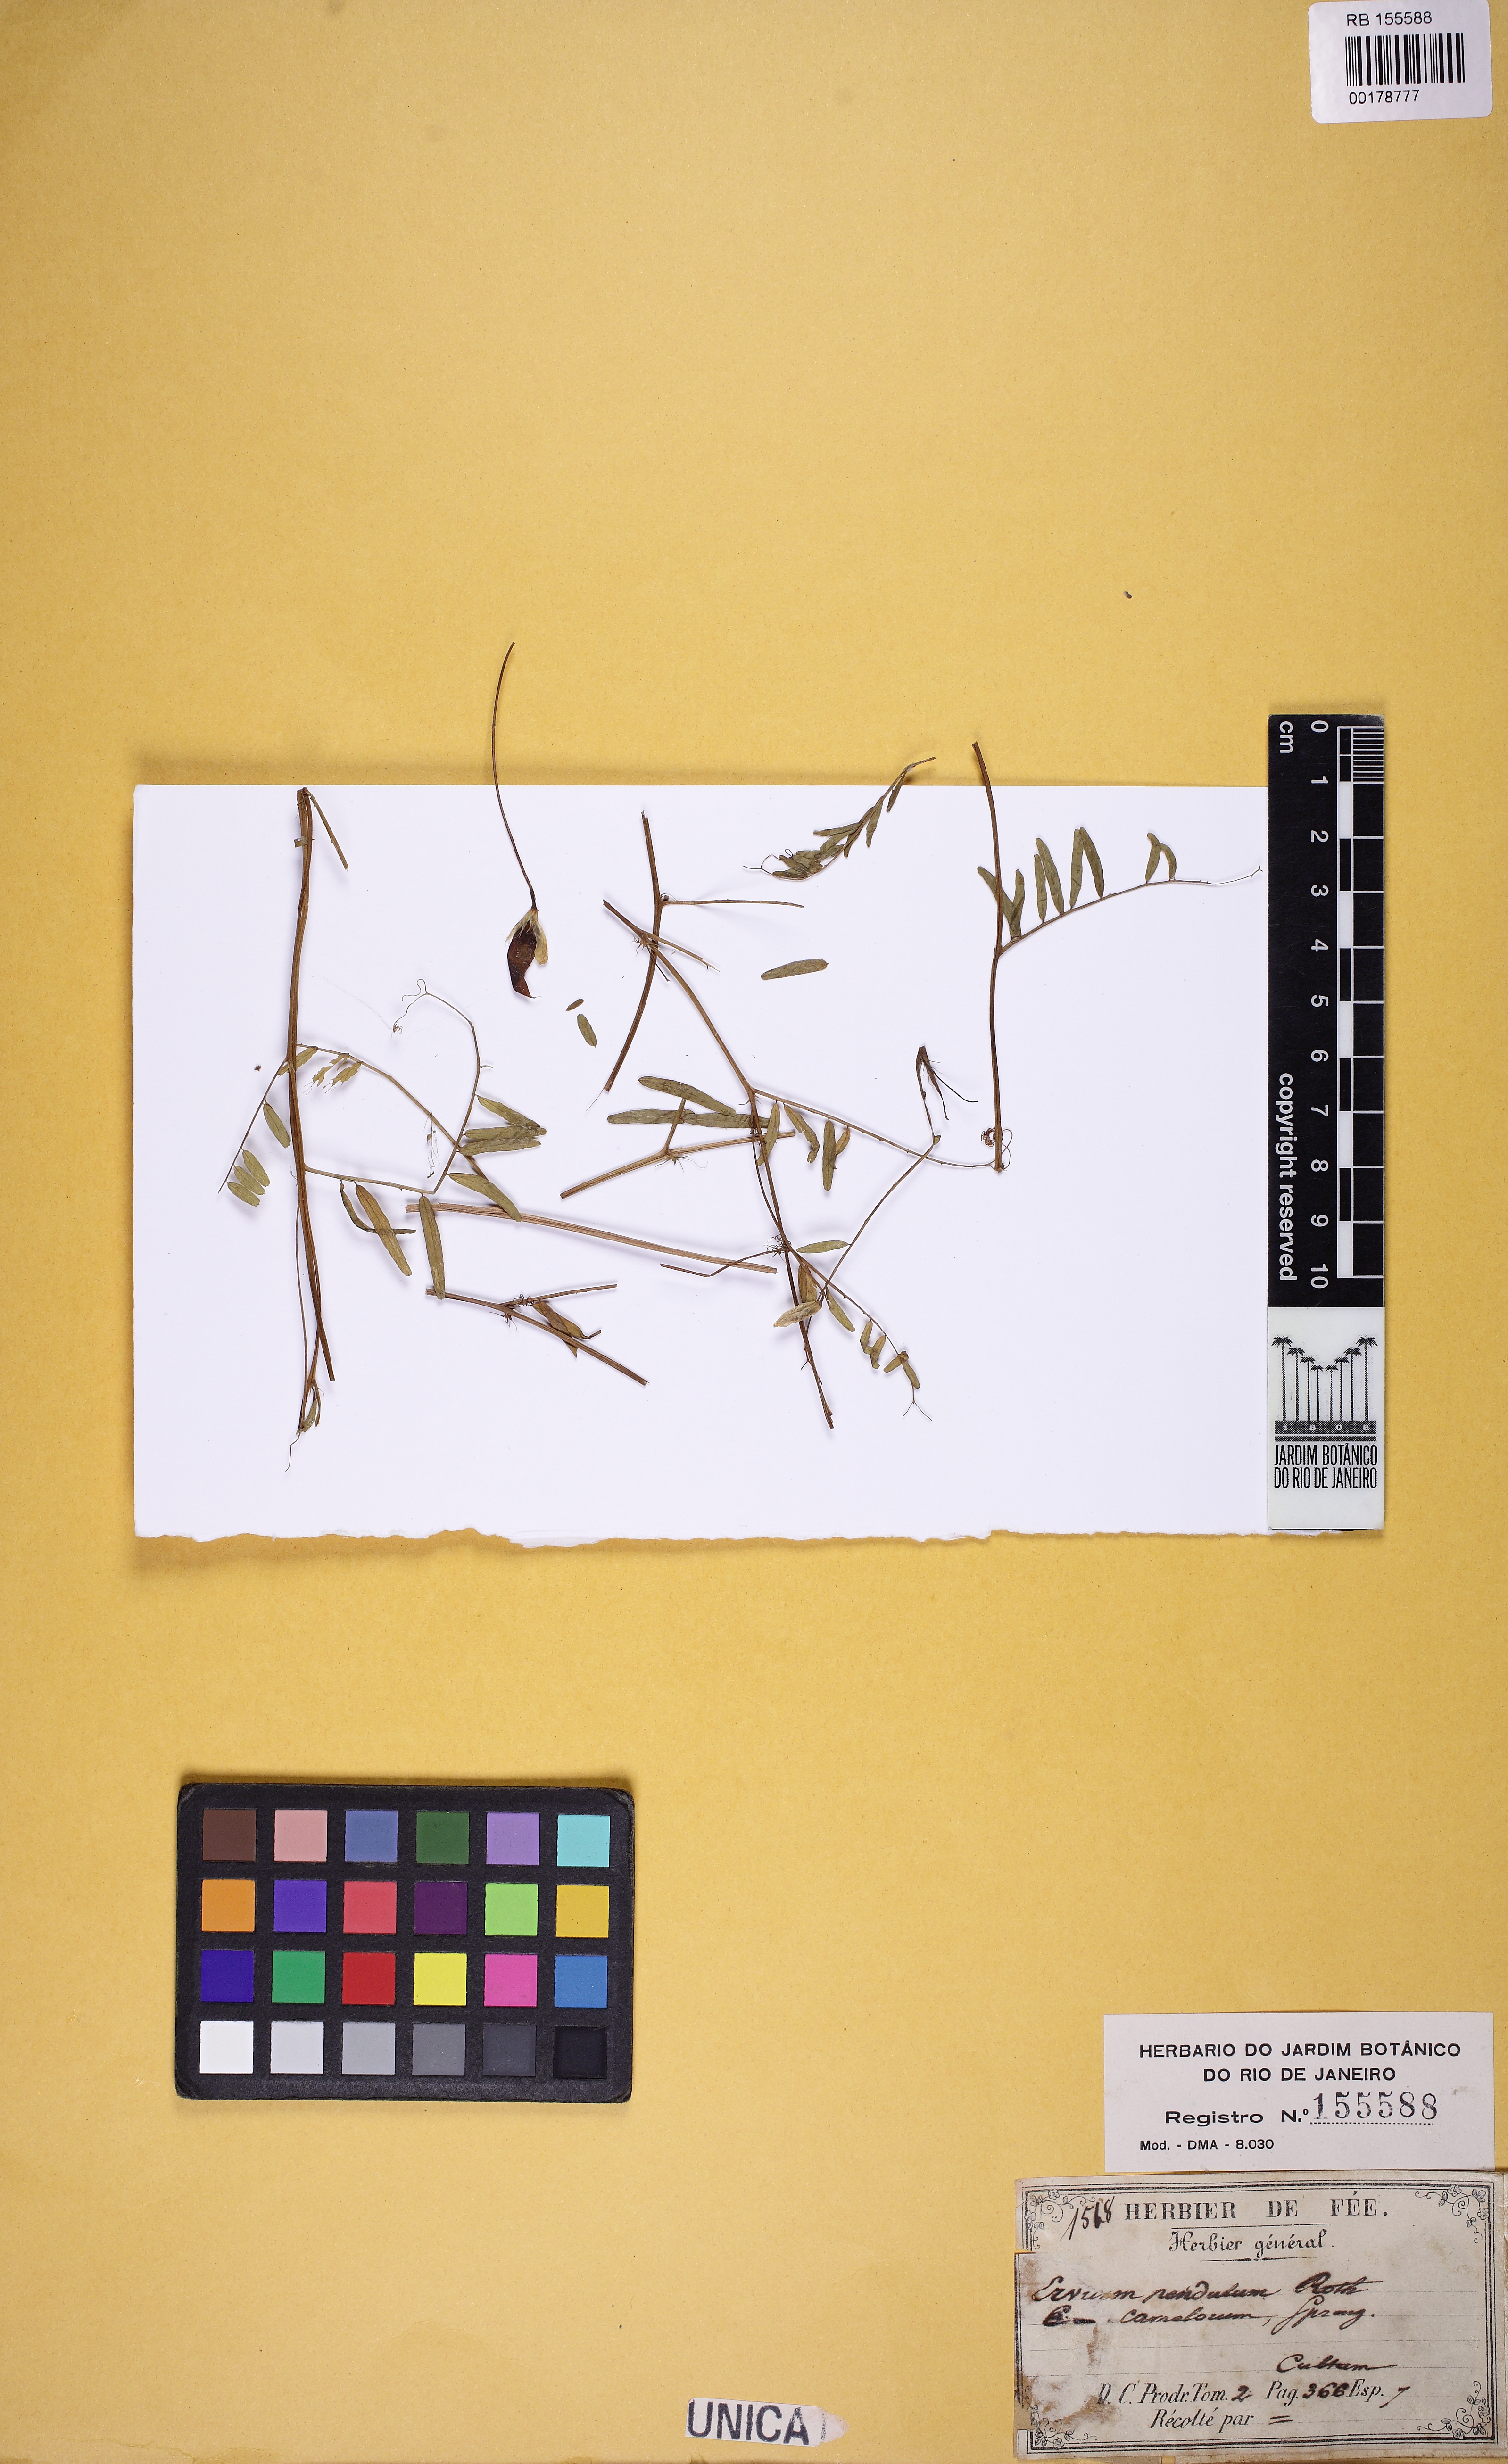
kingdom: Plantae
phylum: Tracheophyta
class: Magnoliopsida
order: Fabales
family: Fabaceae
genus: Vicia
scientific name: Vicia
